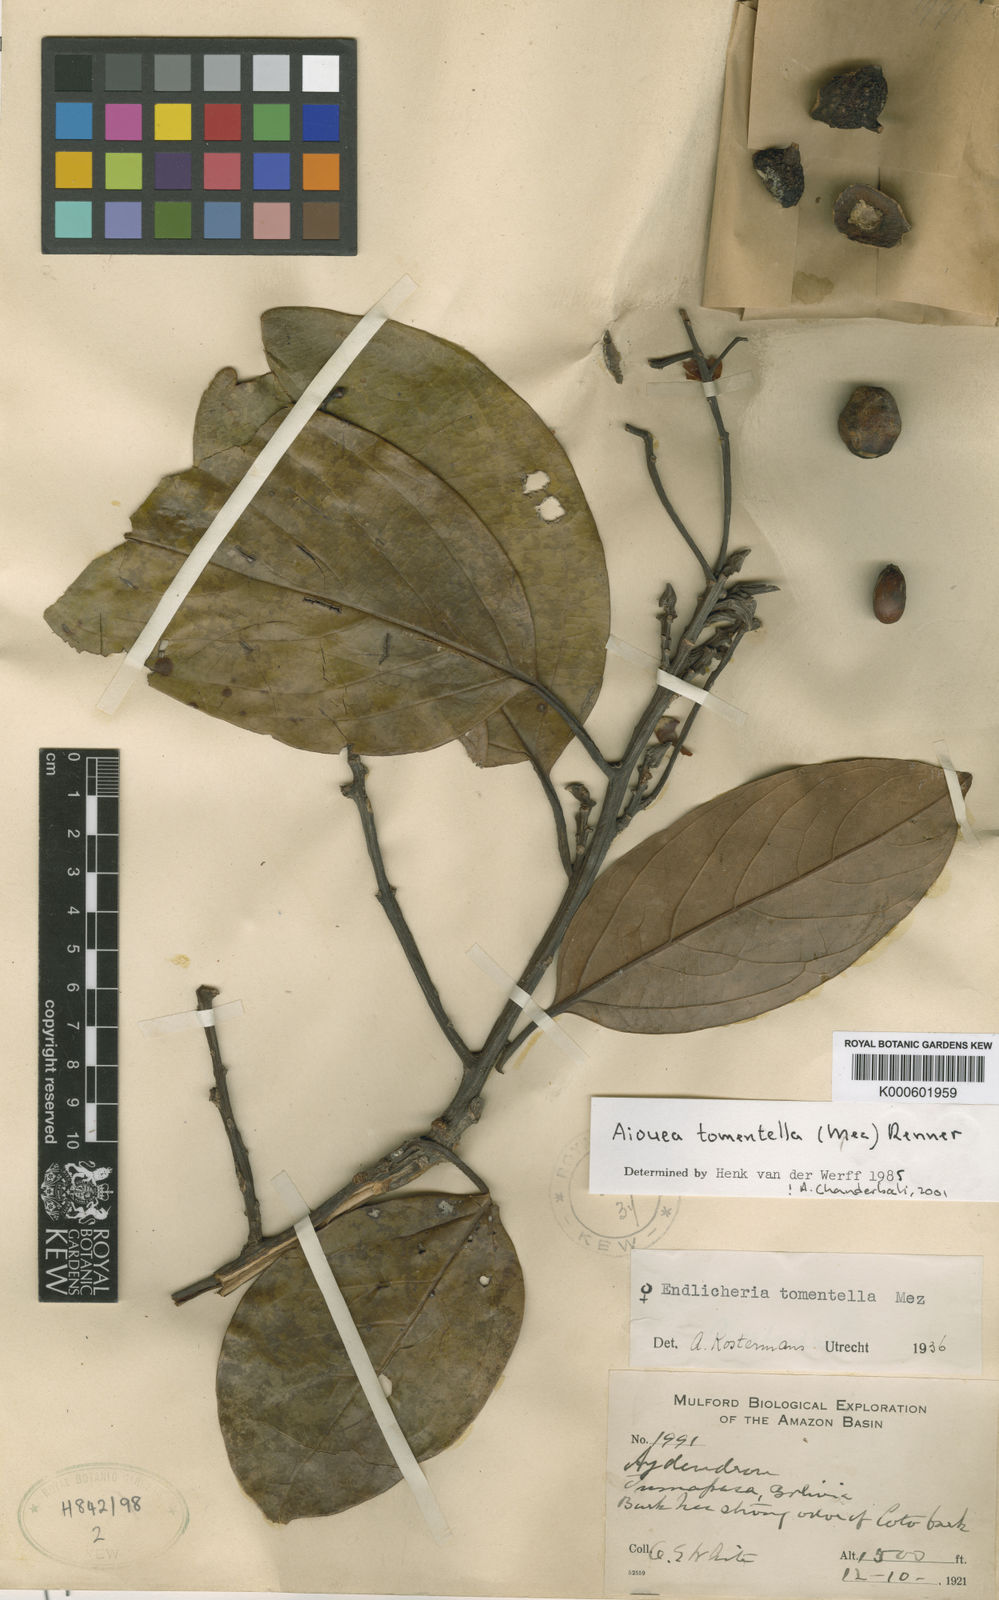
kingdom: Plantae
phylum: Tracheophyta
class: Magnoliopsida
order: Laurales
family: Lauraceae
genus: Aiouea
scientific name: Aiouea tomentella
